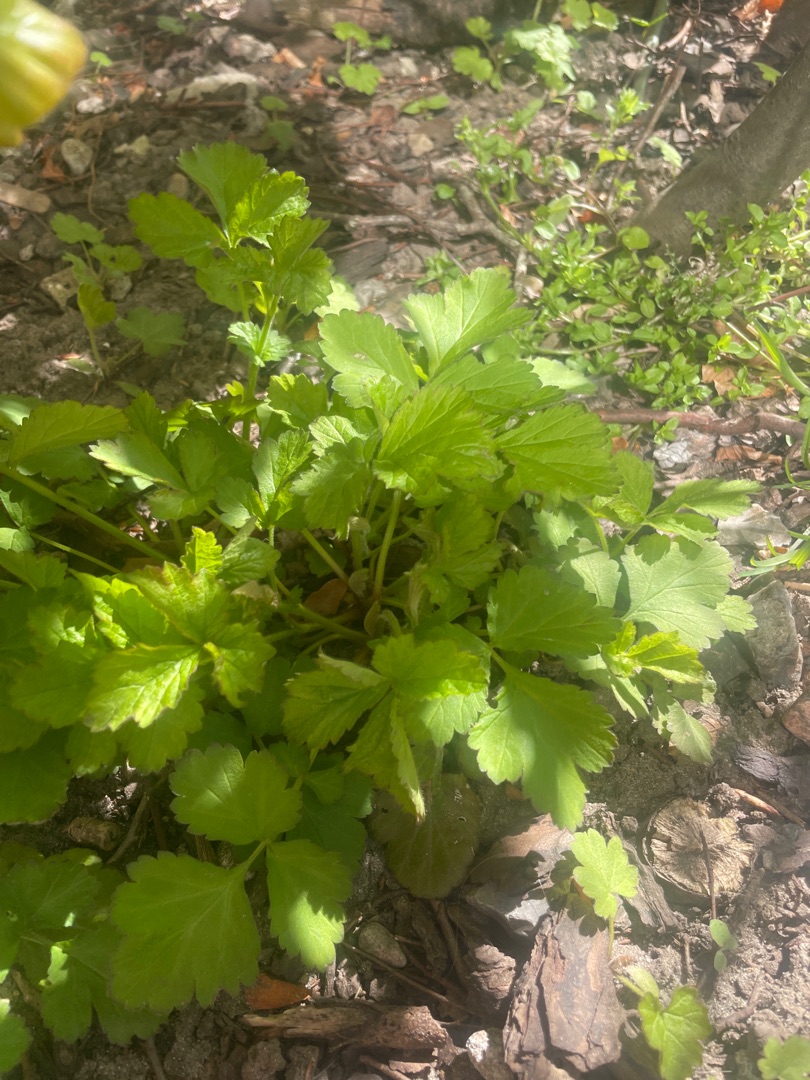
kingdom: Plantae
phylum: Tracheophyta
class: Magnoliopsida
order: Rosales
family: Rosaceae
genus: Geum
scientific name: Geum urbanum
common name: Feber-nellikerod
